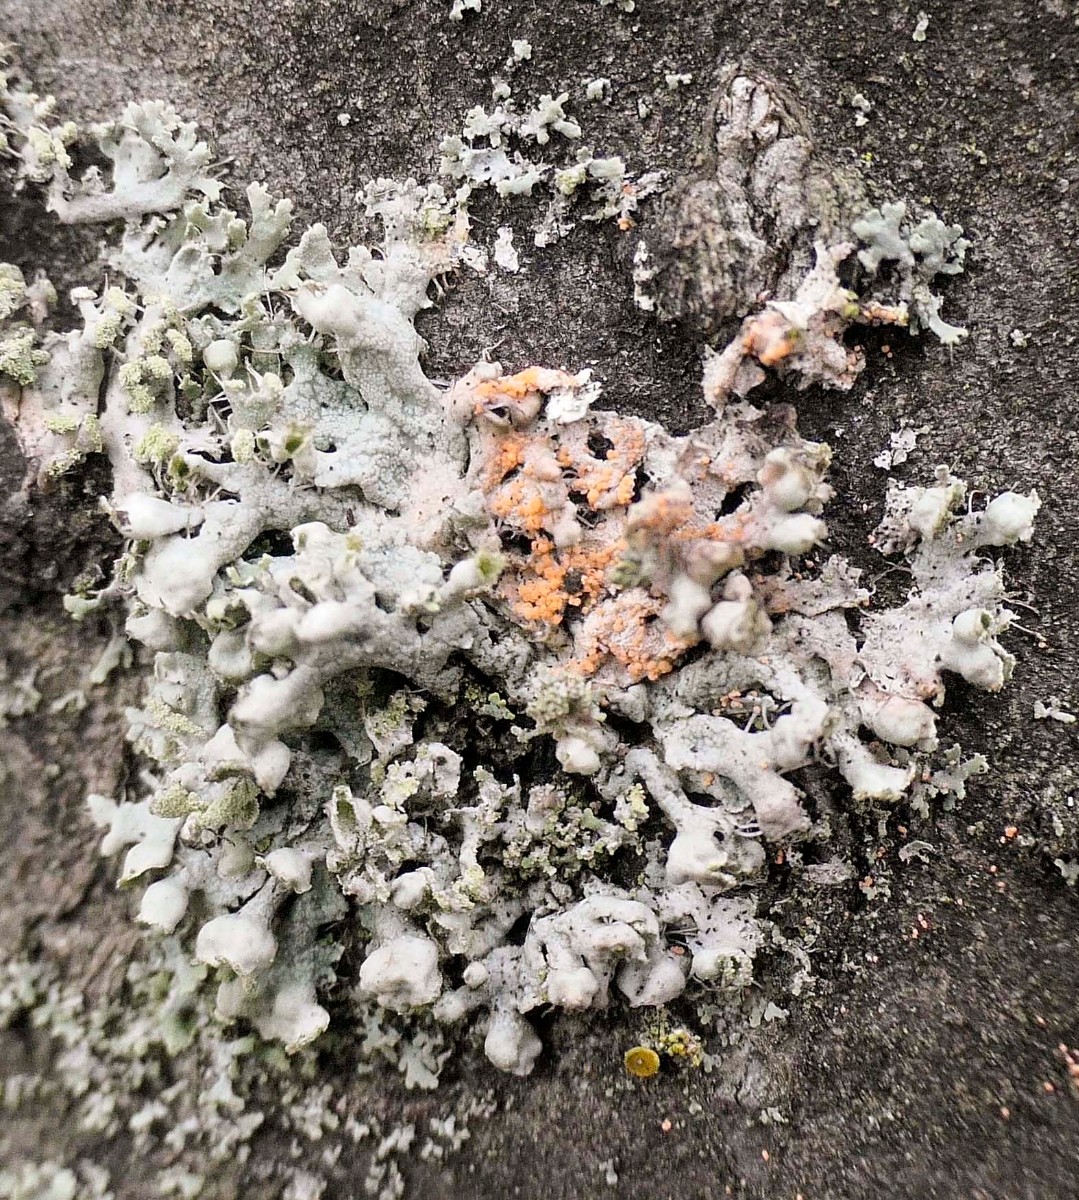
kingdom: Fungi
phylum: Basidiomycota
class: Agaricomycetes
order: Corticiales
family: Corticiaceae
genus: Erythricium
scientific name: Erythricium aurantiacum
